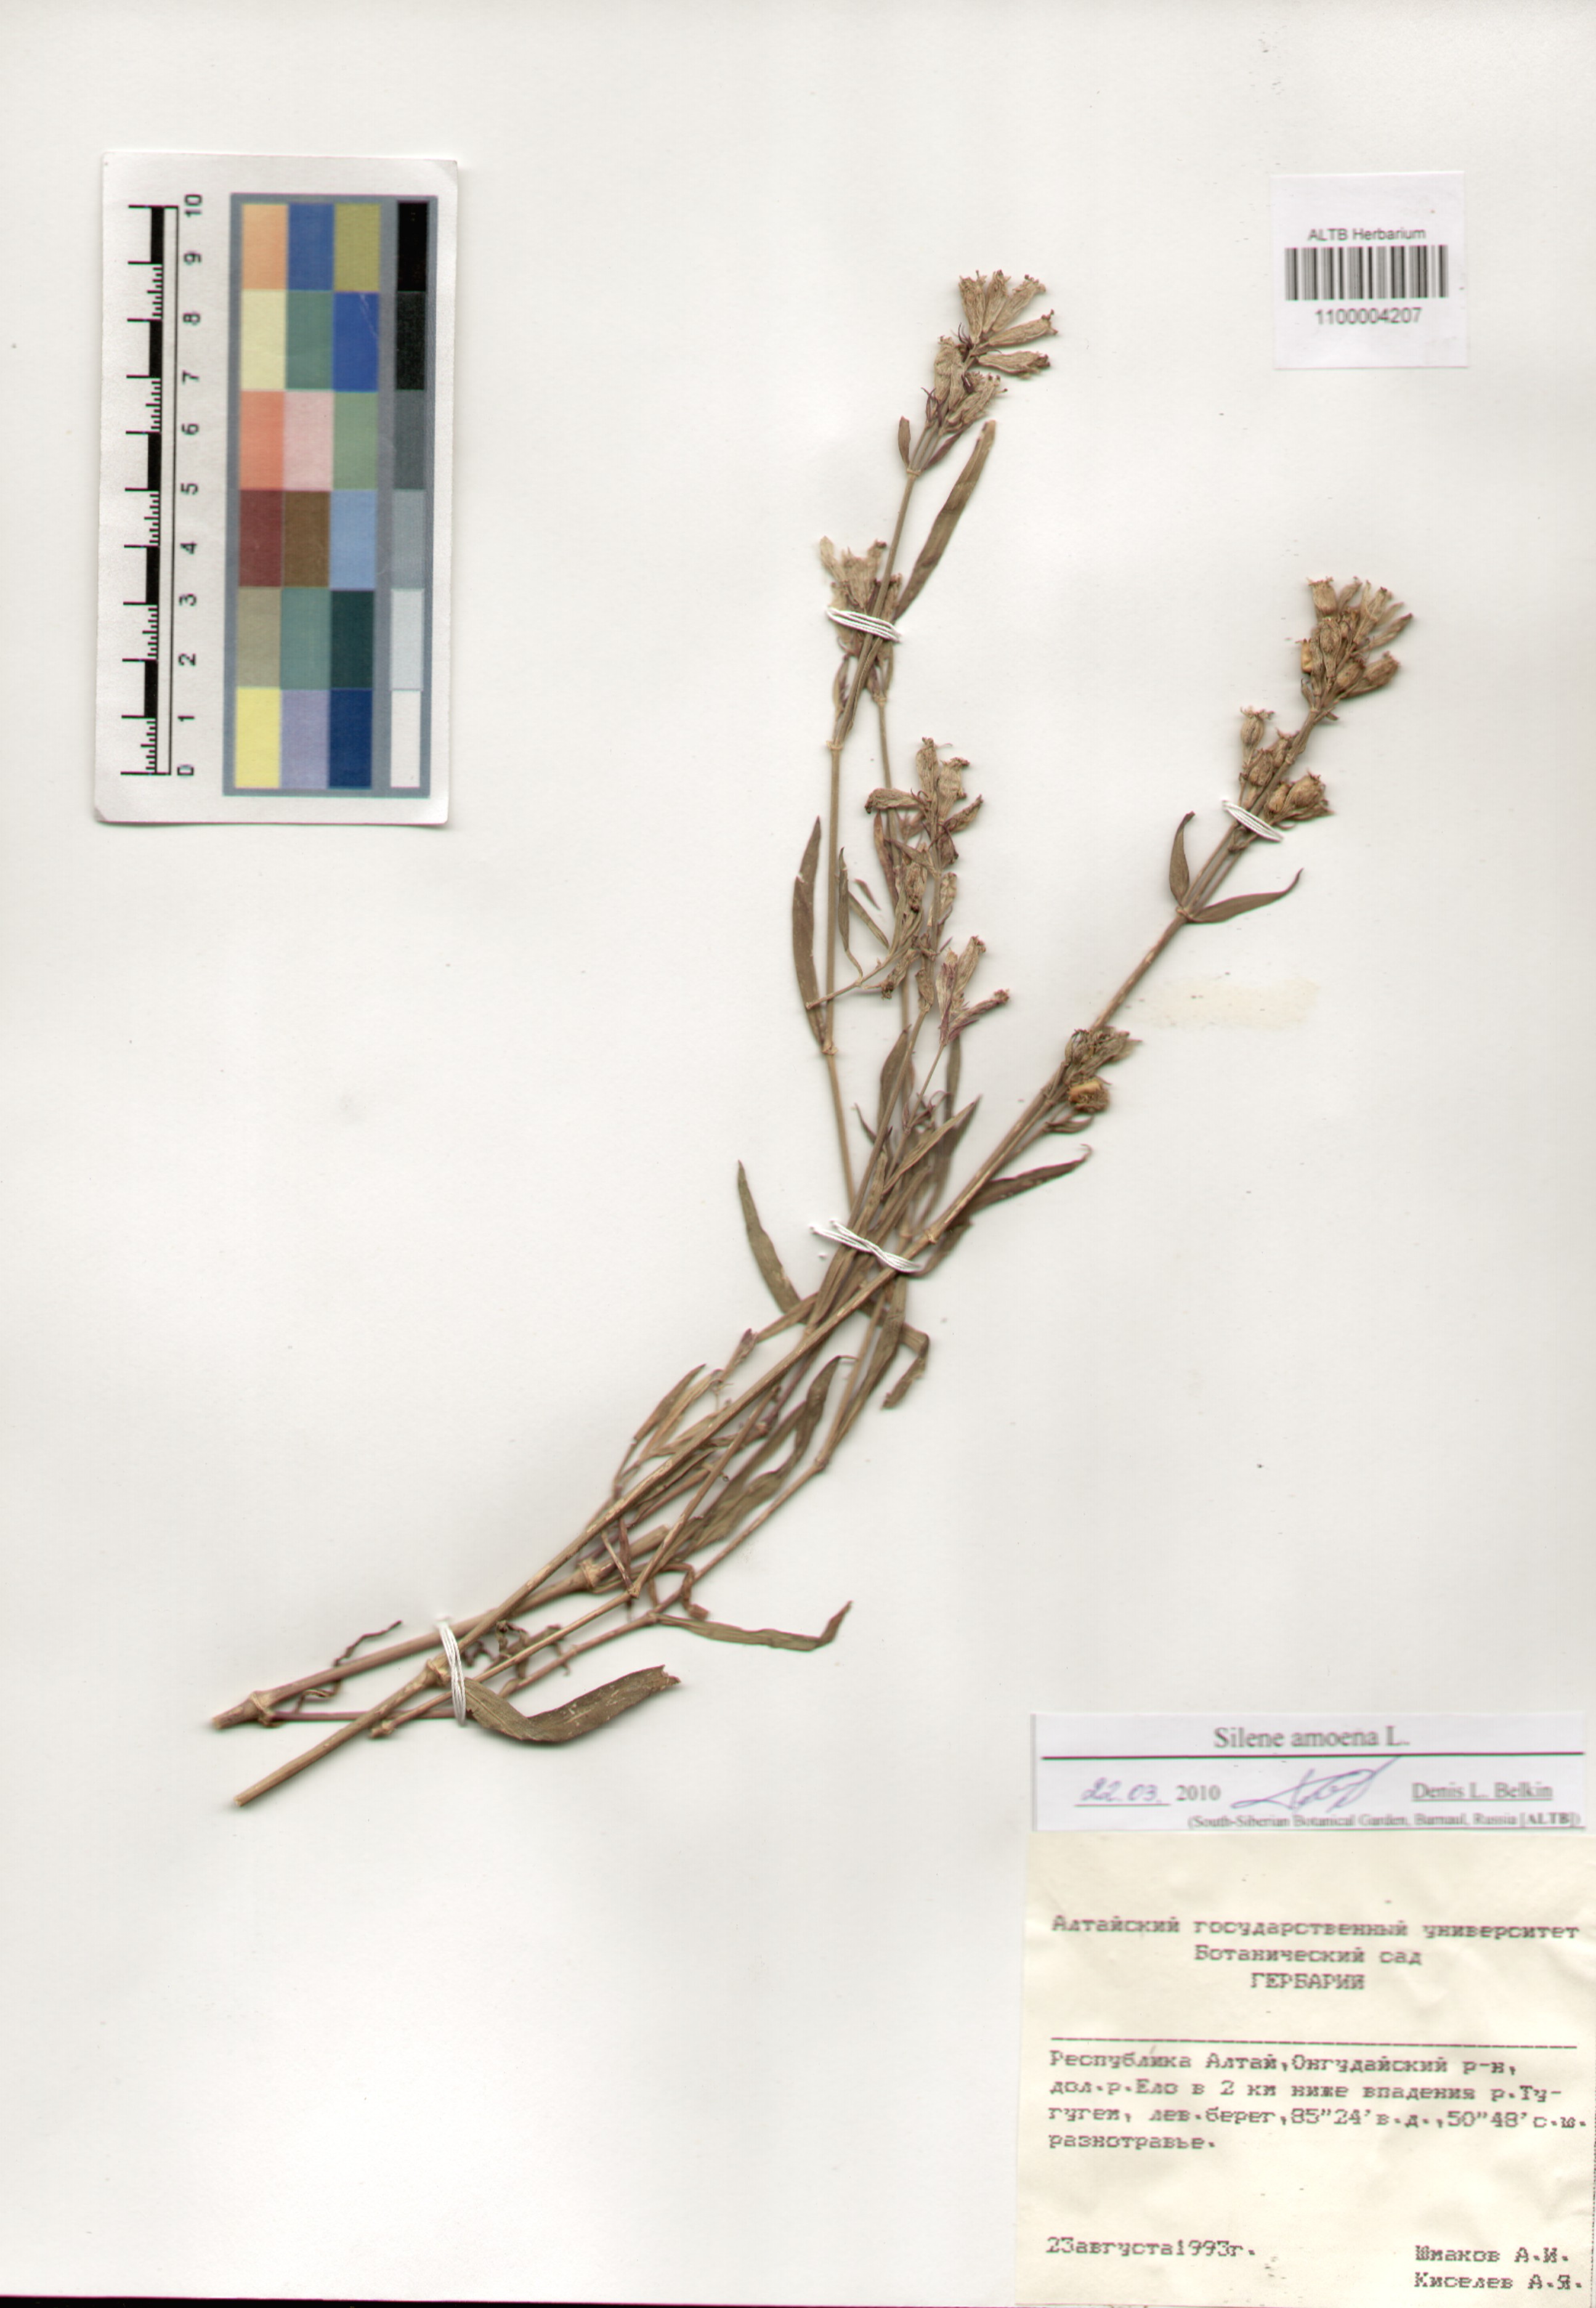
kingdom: Plantae
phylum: Tracheophyta
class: Magnoliopsida
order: Caryophyllales
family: Caryophyllaceae
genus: Silene
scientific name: Silene amoena
